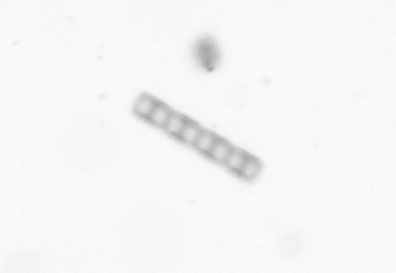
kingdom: Chromista
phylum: Ochrophyta
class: Bacillariophyceae
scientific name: Bacillariophyceae
